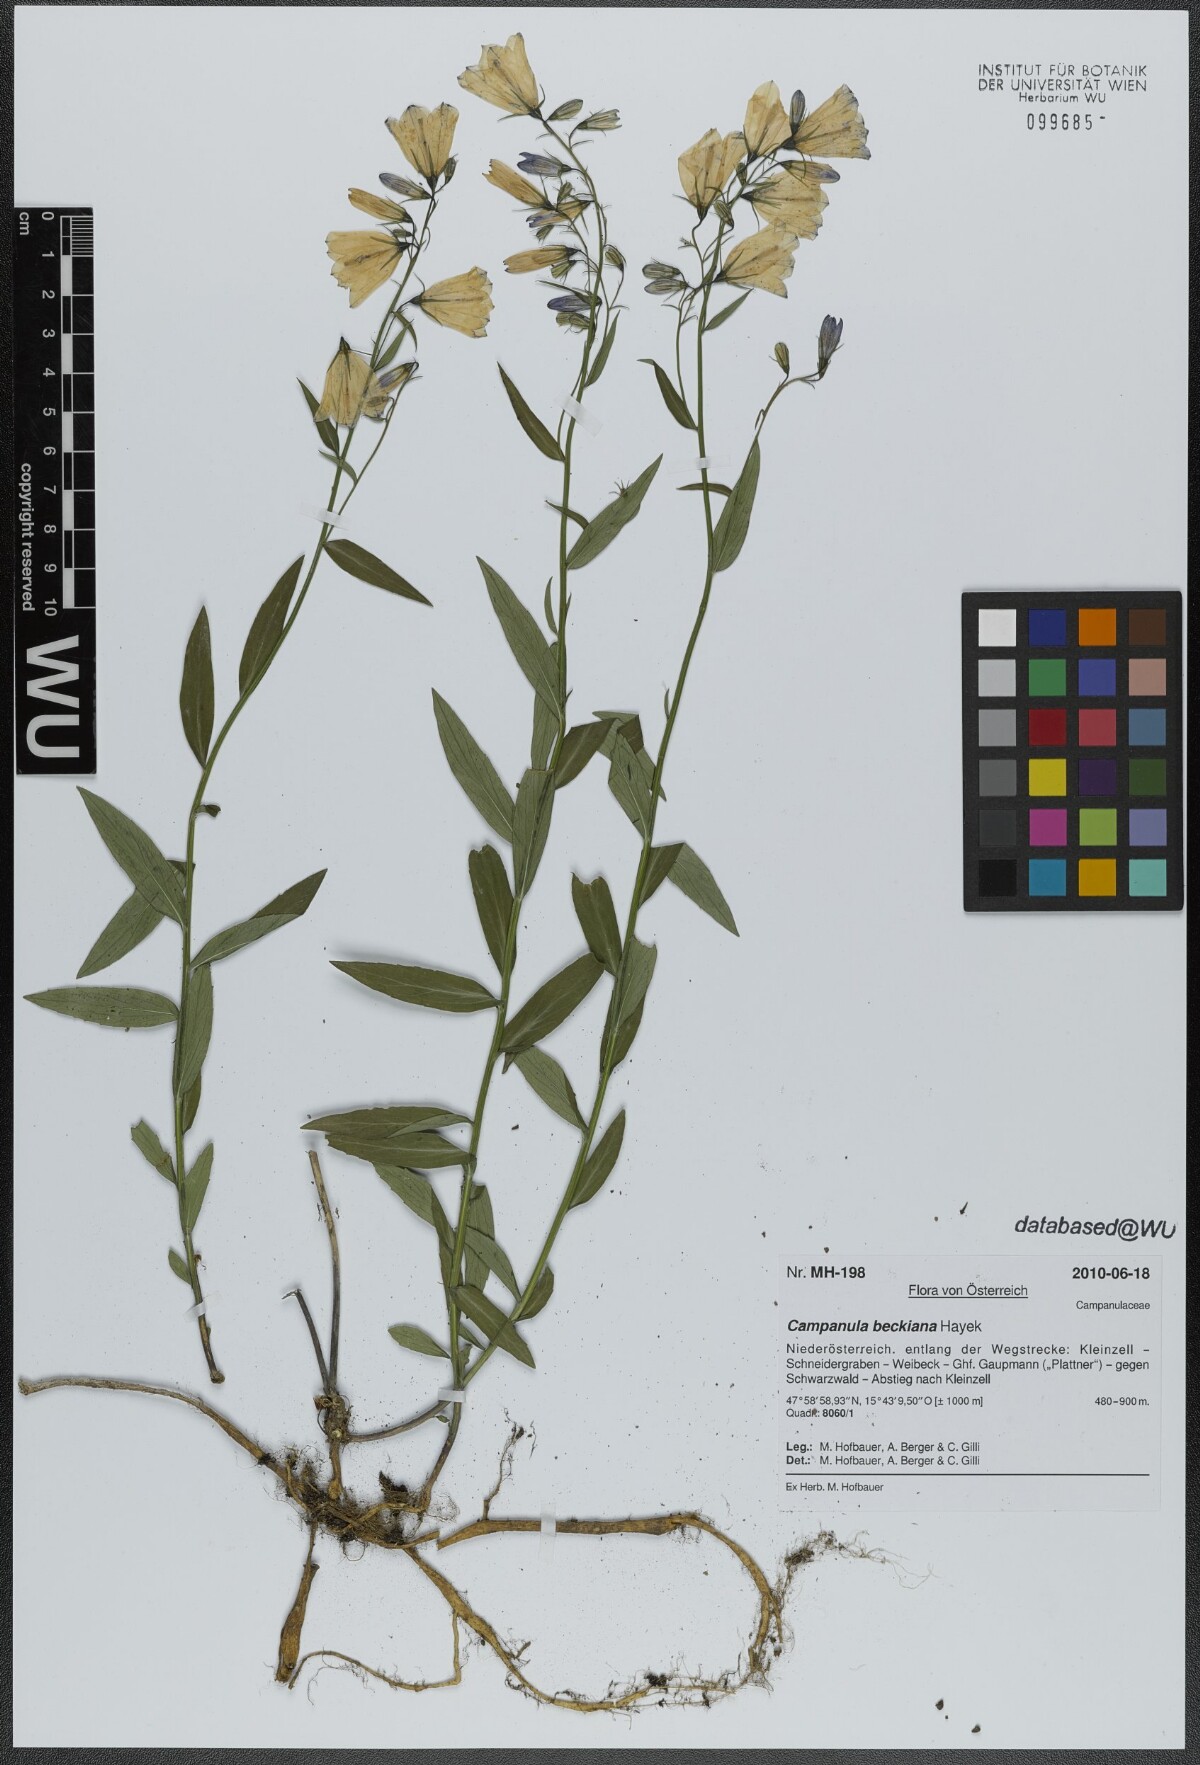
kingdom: Plantae
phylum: Tracheophyta
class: Magnoliopsida
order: Asterales
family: Campanulaceae
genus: Campanula
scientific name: Campanula baumgartenii
